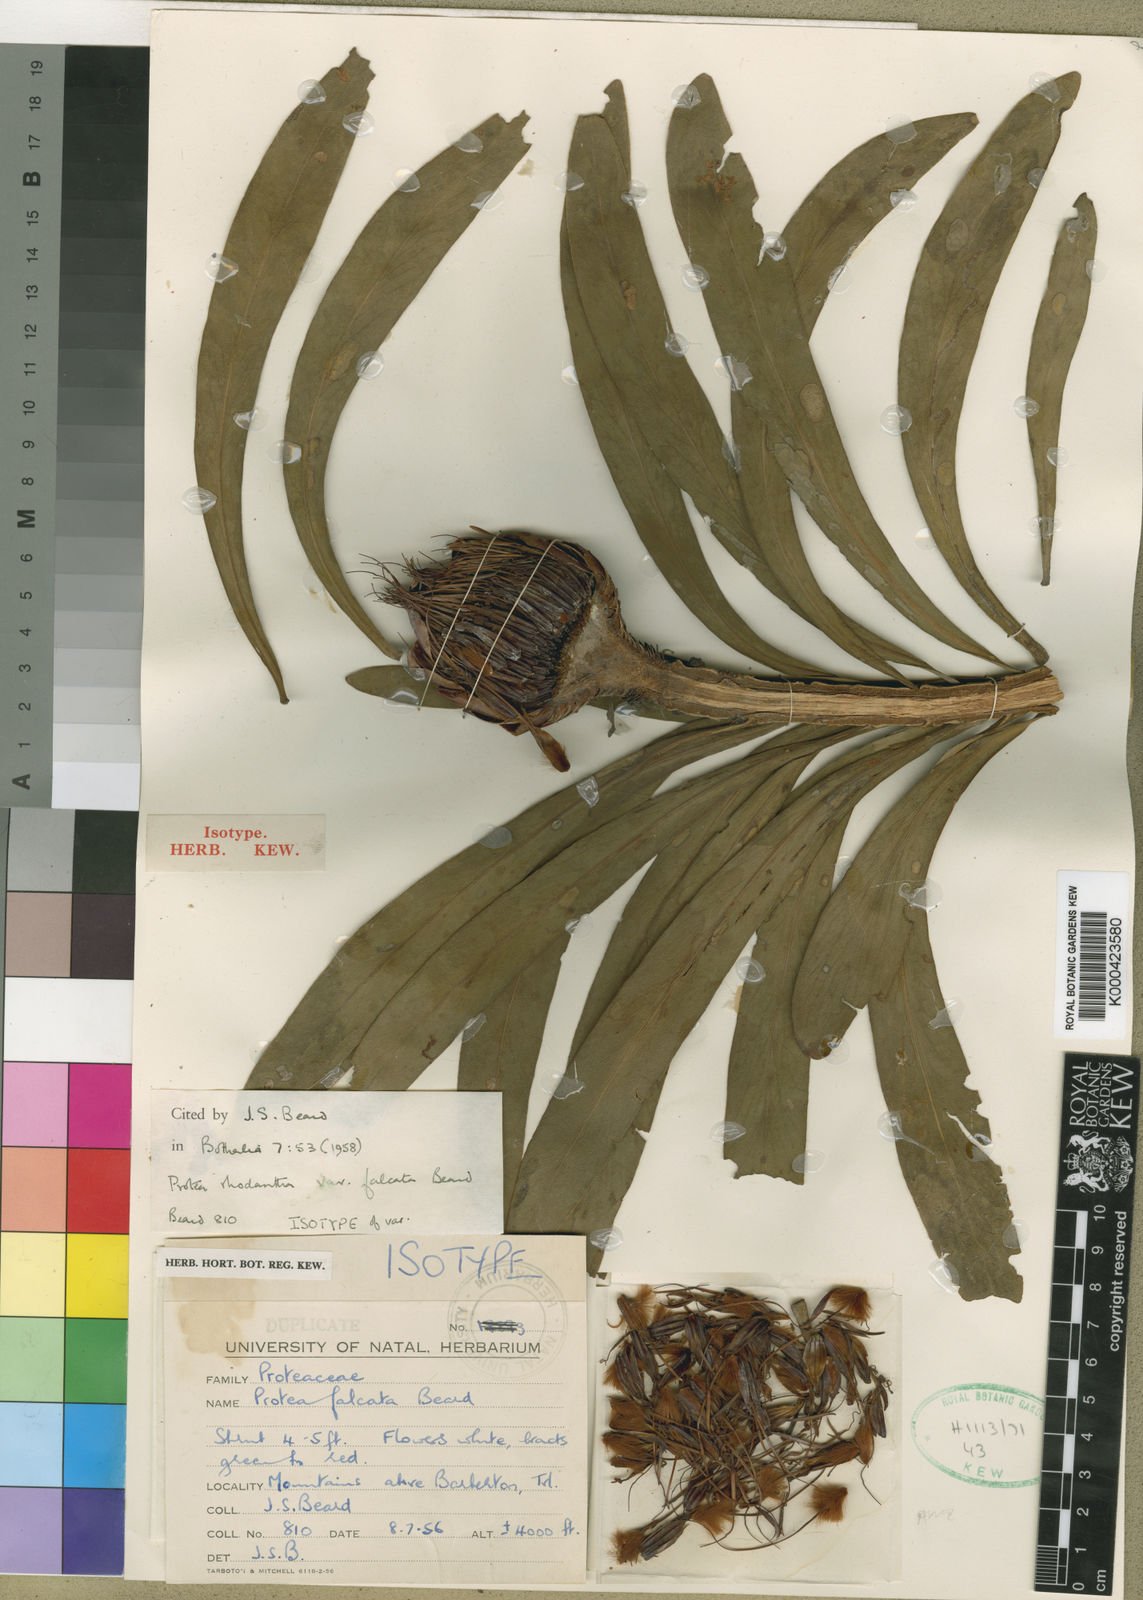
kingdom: Plantae
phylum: Tracheophyta
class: Magnoliopsida
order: Proteales
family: Proteaceae
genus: Protea
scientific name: Protea caffra
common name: Common sugarbush
